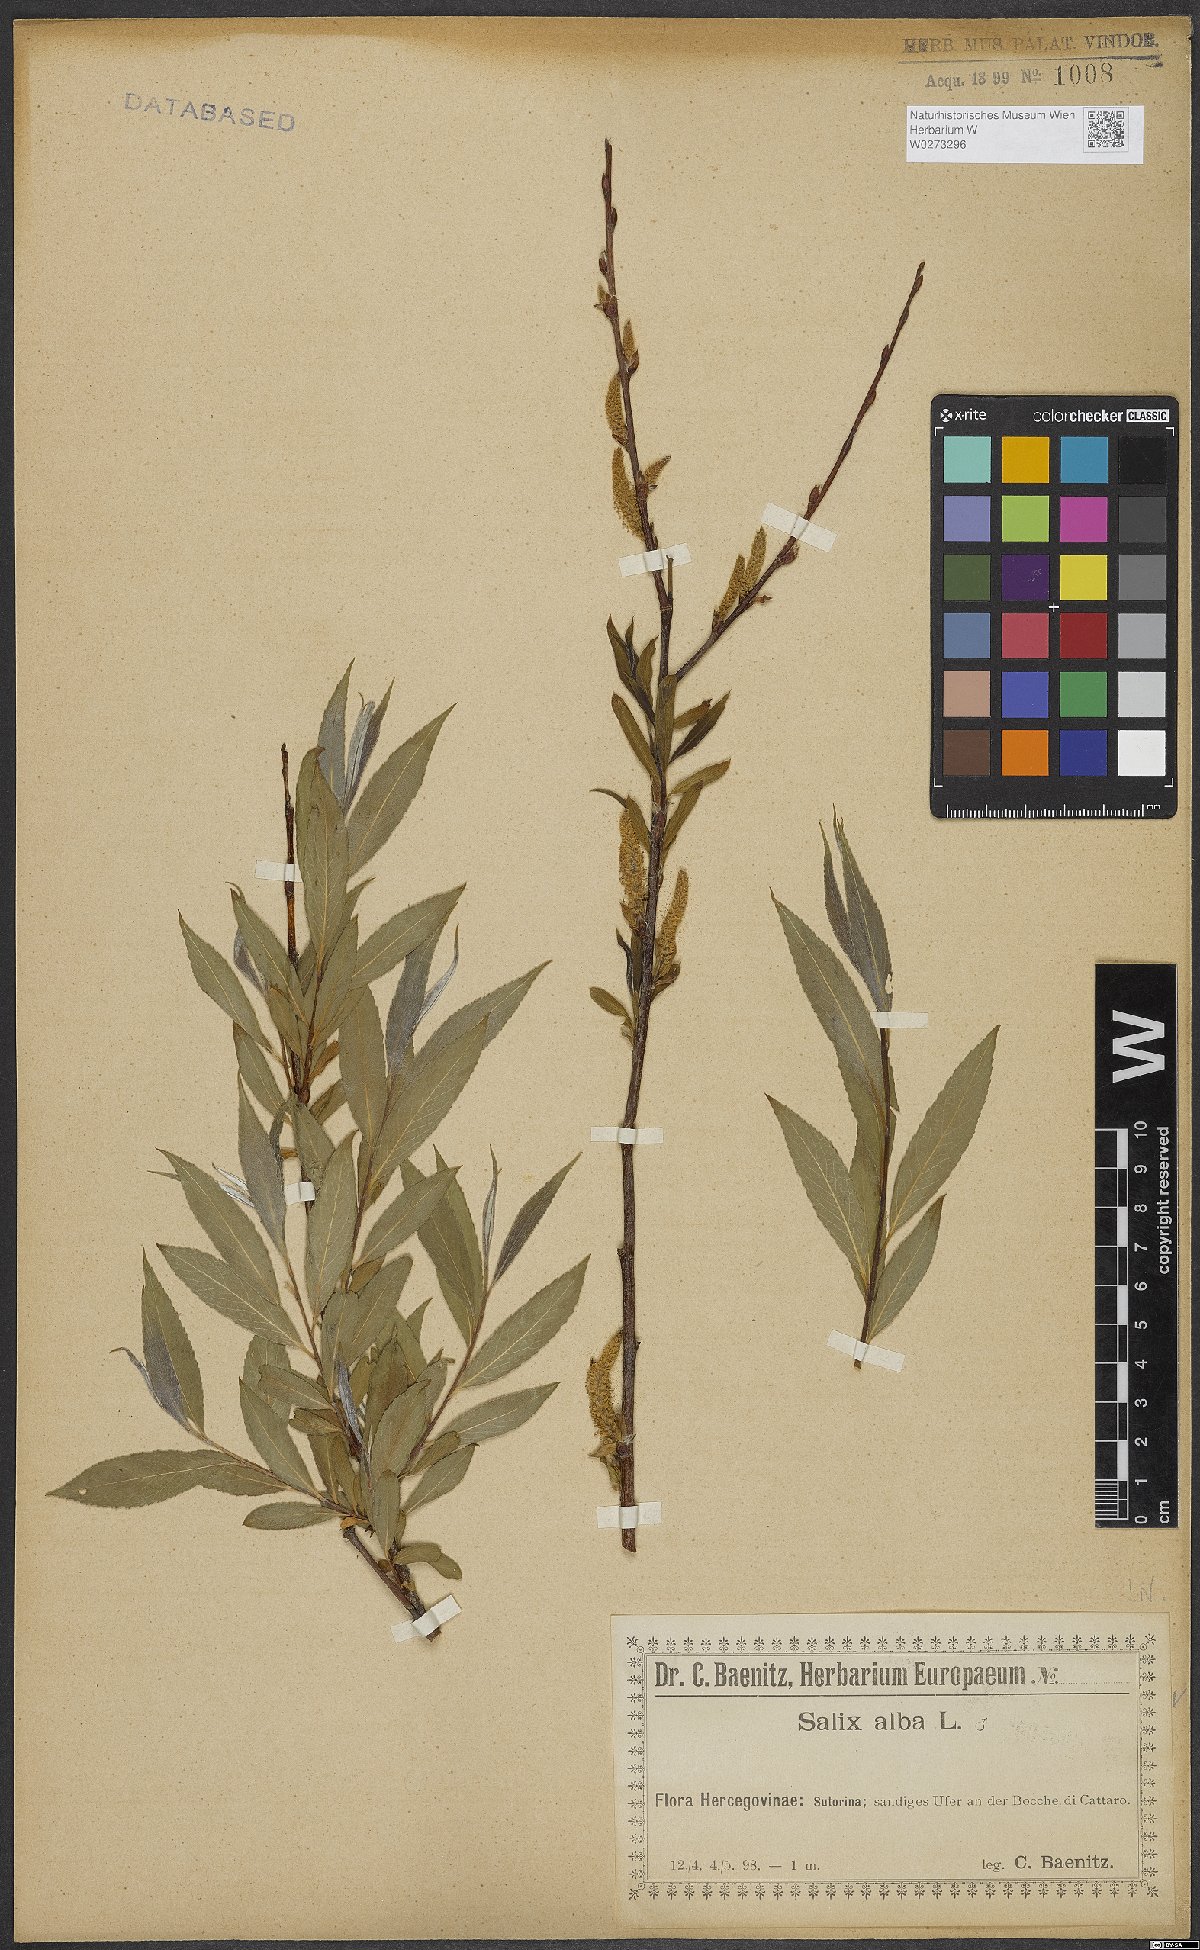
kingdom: Plantae
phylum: Tracheophyta
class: Magnoliopsida
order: Malpighiales
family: Salicaceae
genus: Salix
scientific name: Salix alba
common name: White willow
